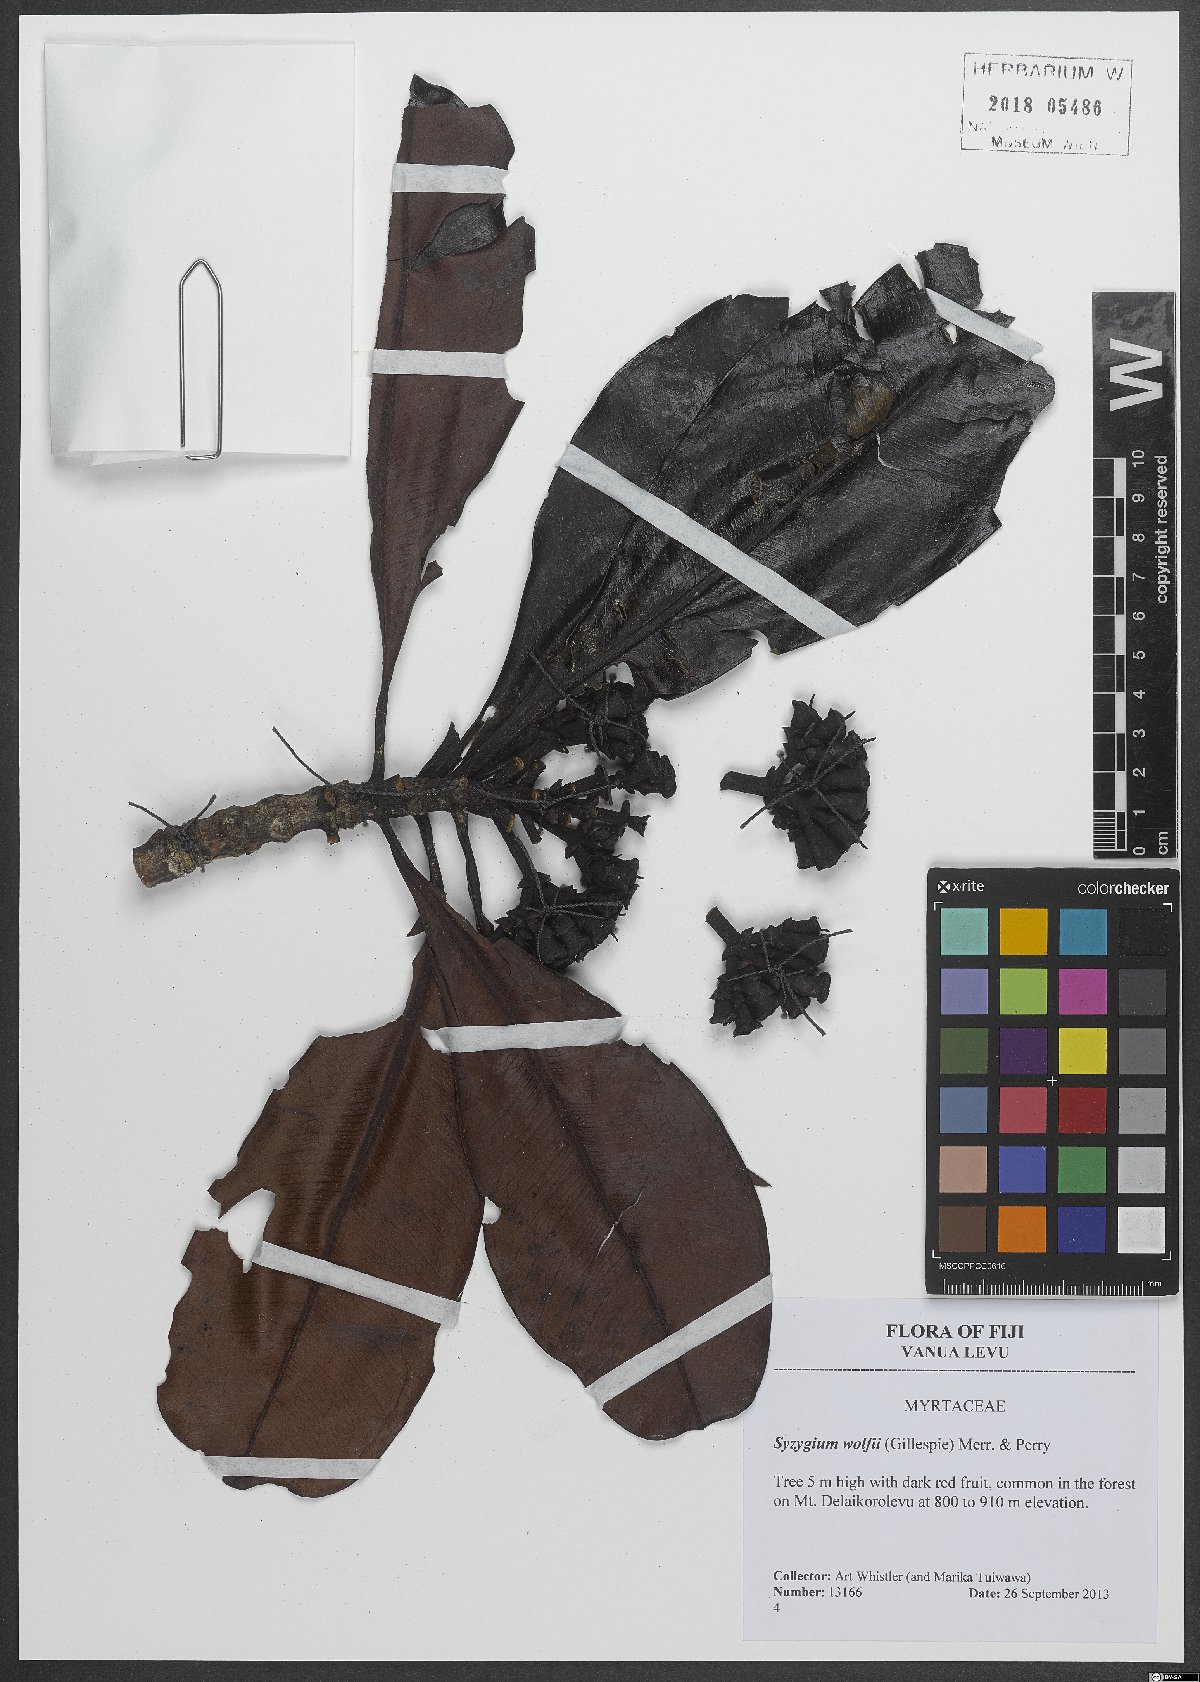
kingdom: Plantae
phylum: Tracheophyta
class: Magnoliopsida
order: Myrtales
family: Myrtaceae
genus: Syzygium
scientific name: Syzygium wolfii
